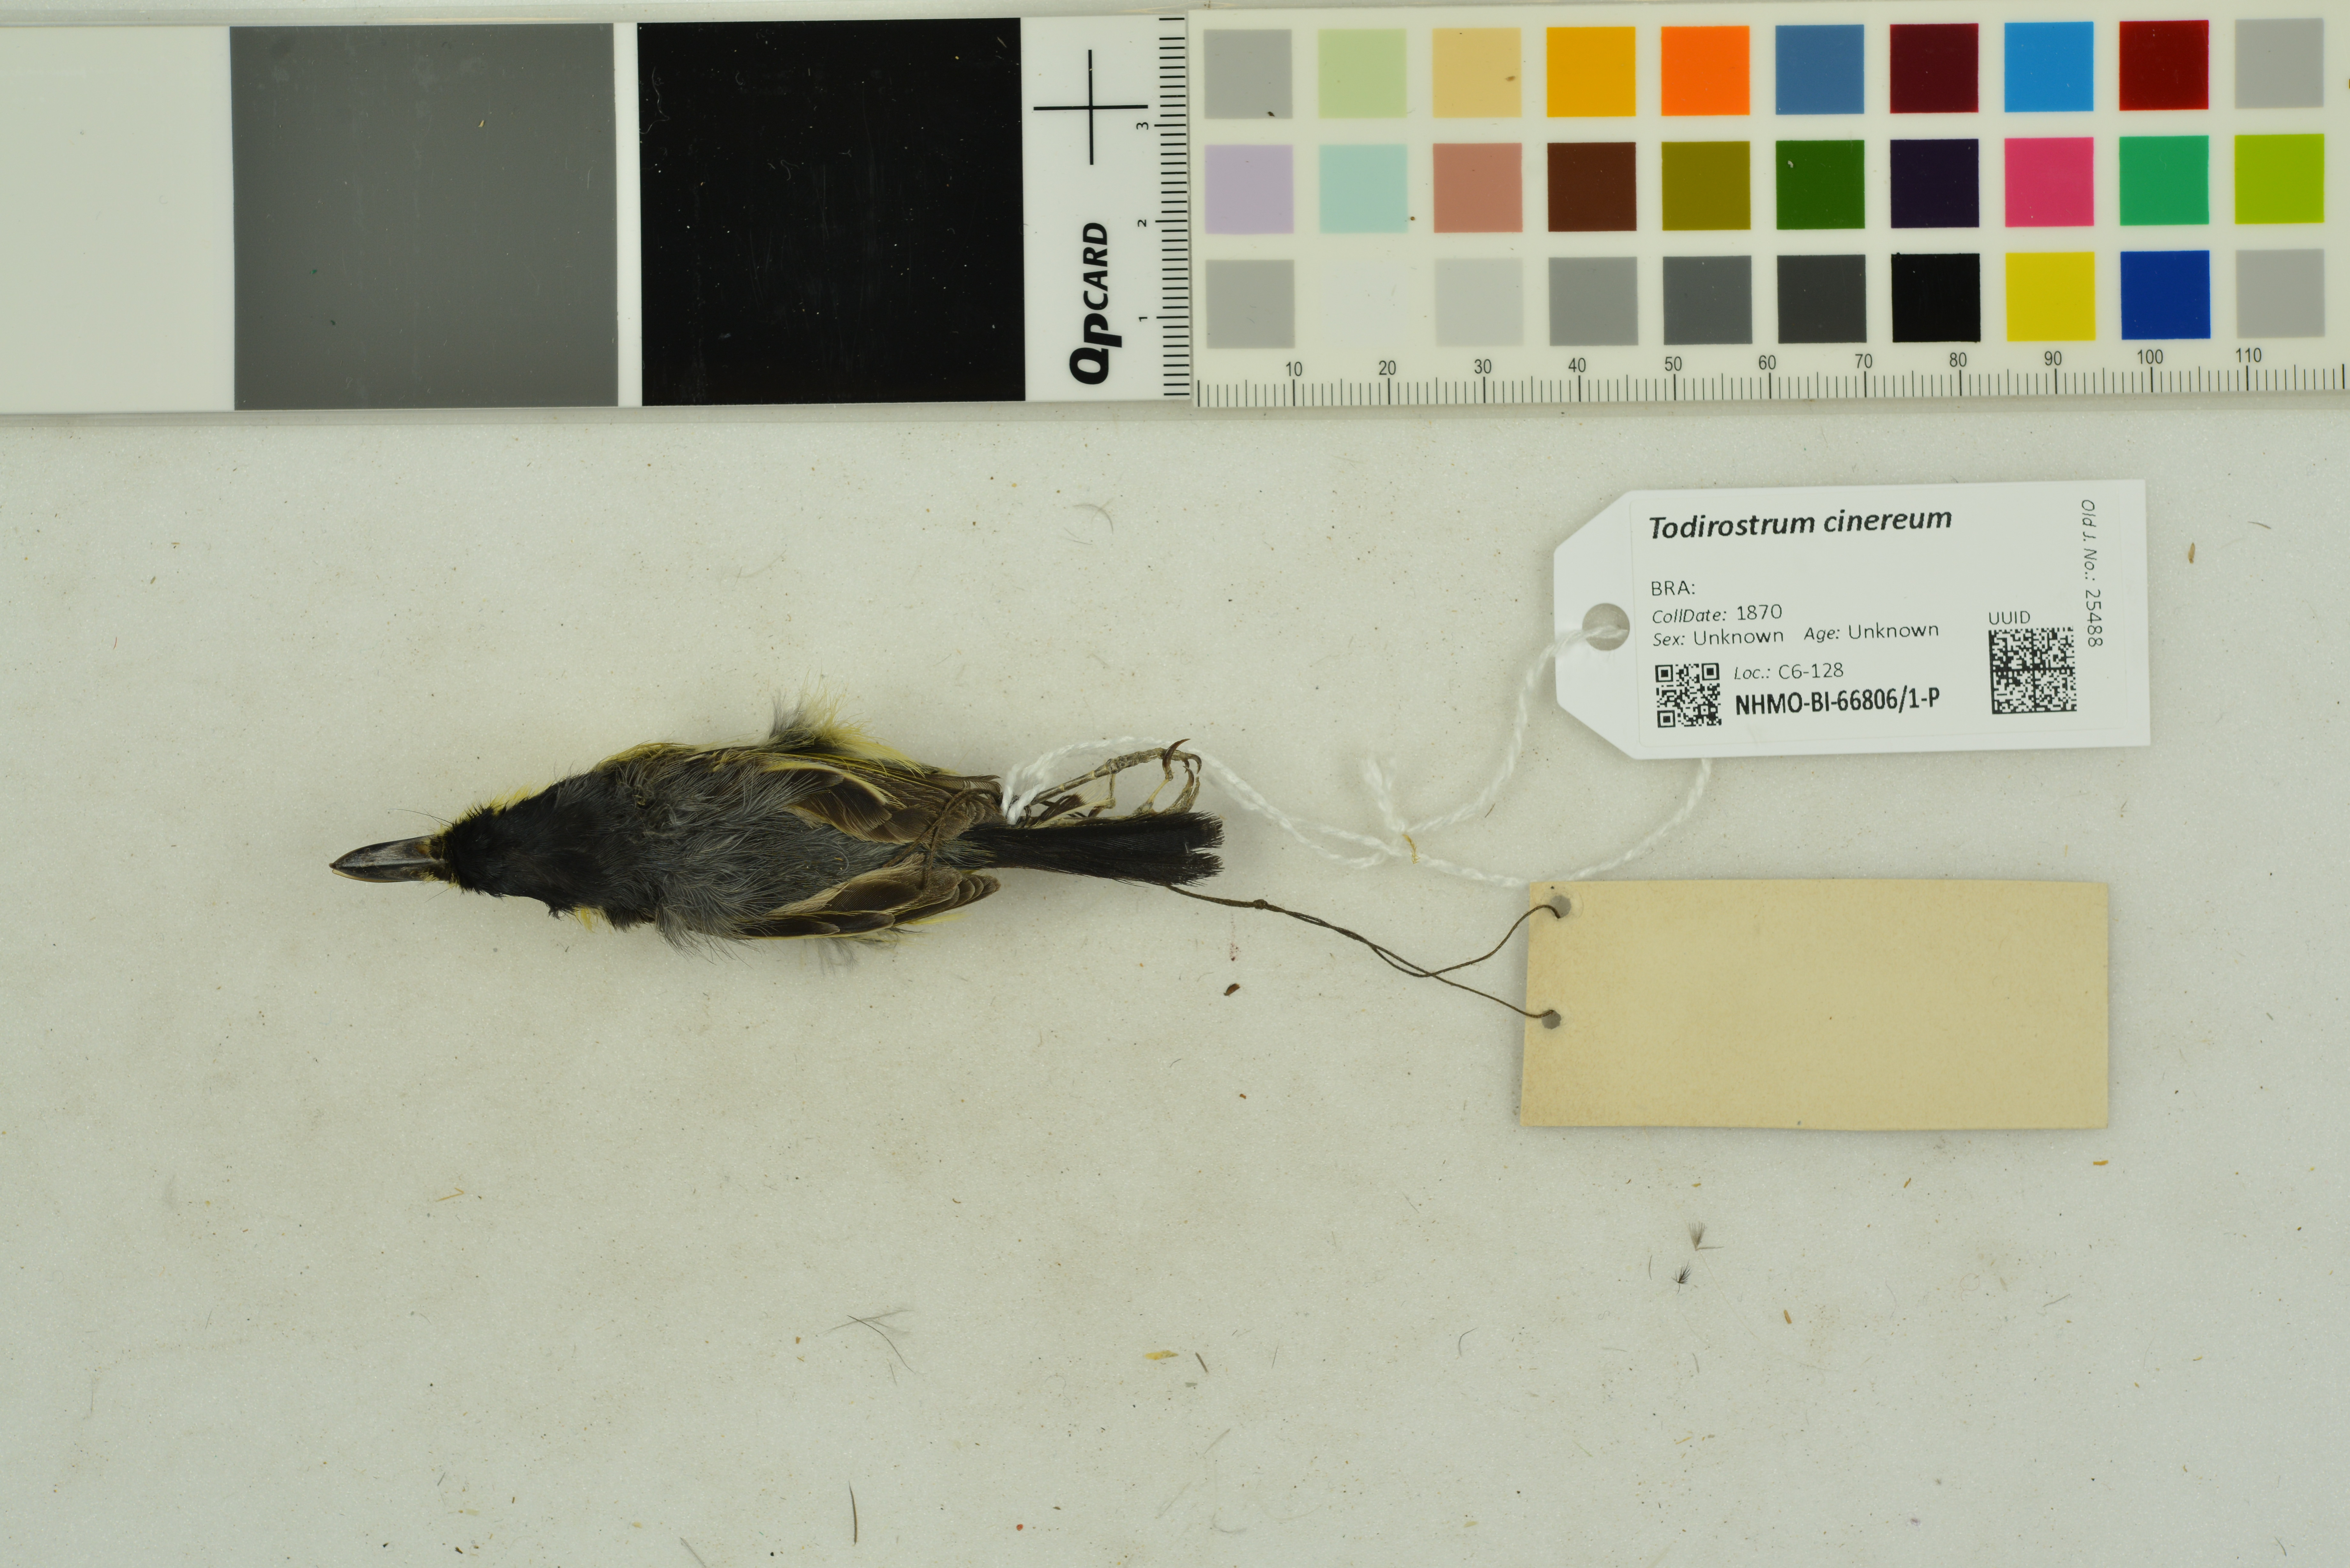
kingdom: Animalia
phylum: Chordata
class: Aves
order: Passeriformes
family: Tyrannidae
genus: Todirostrum
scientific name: Todirostrum cinereum
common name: Common tody-flycatcher
